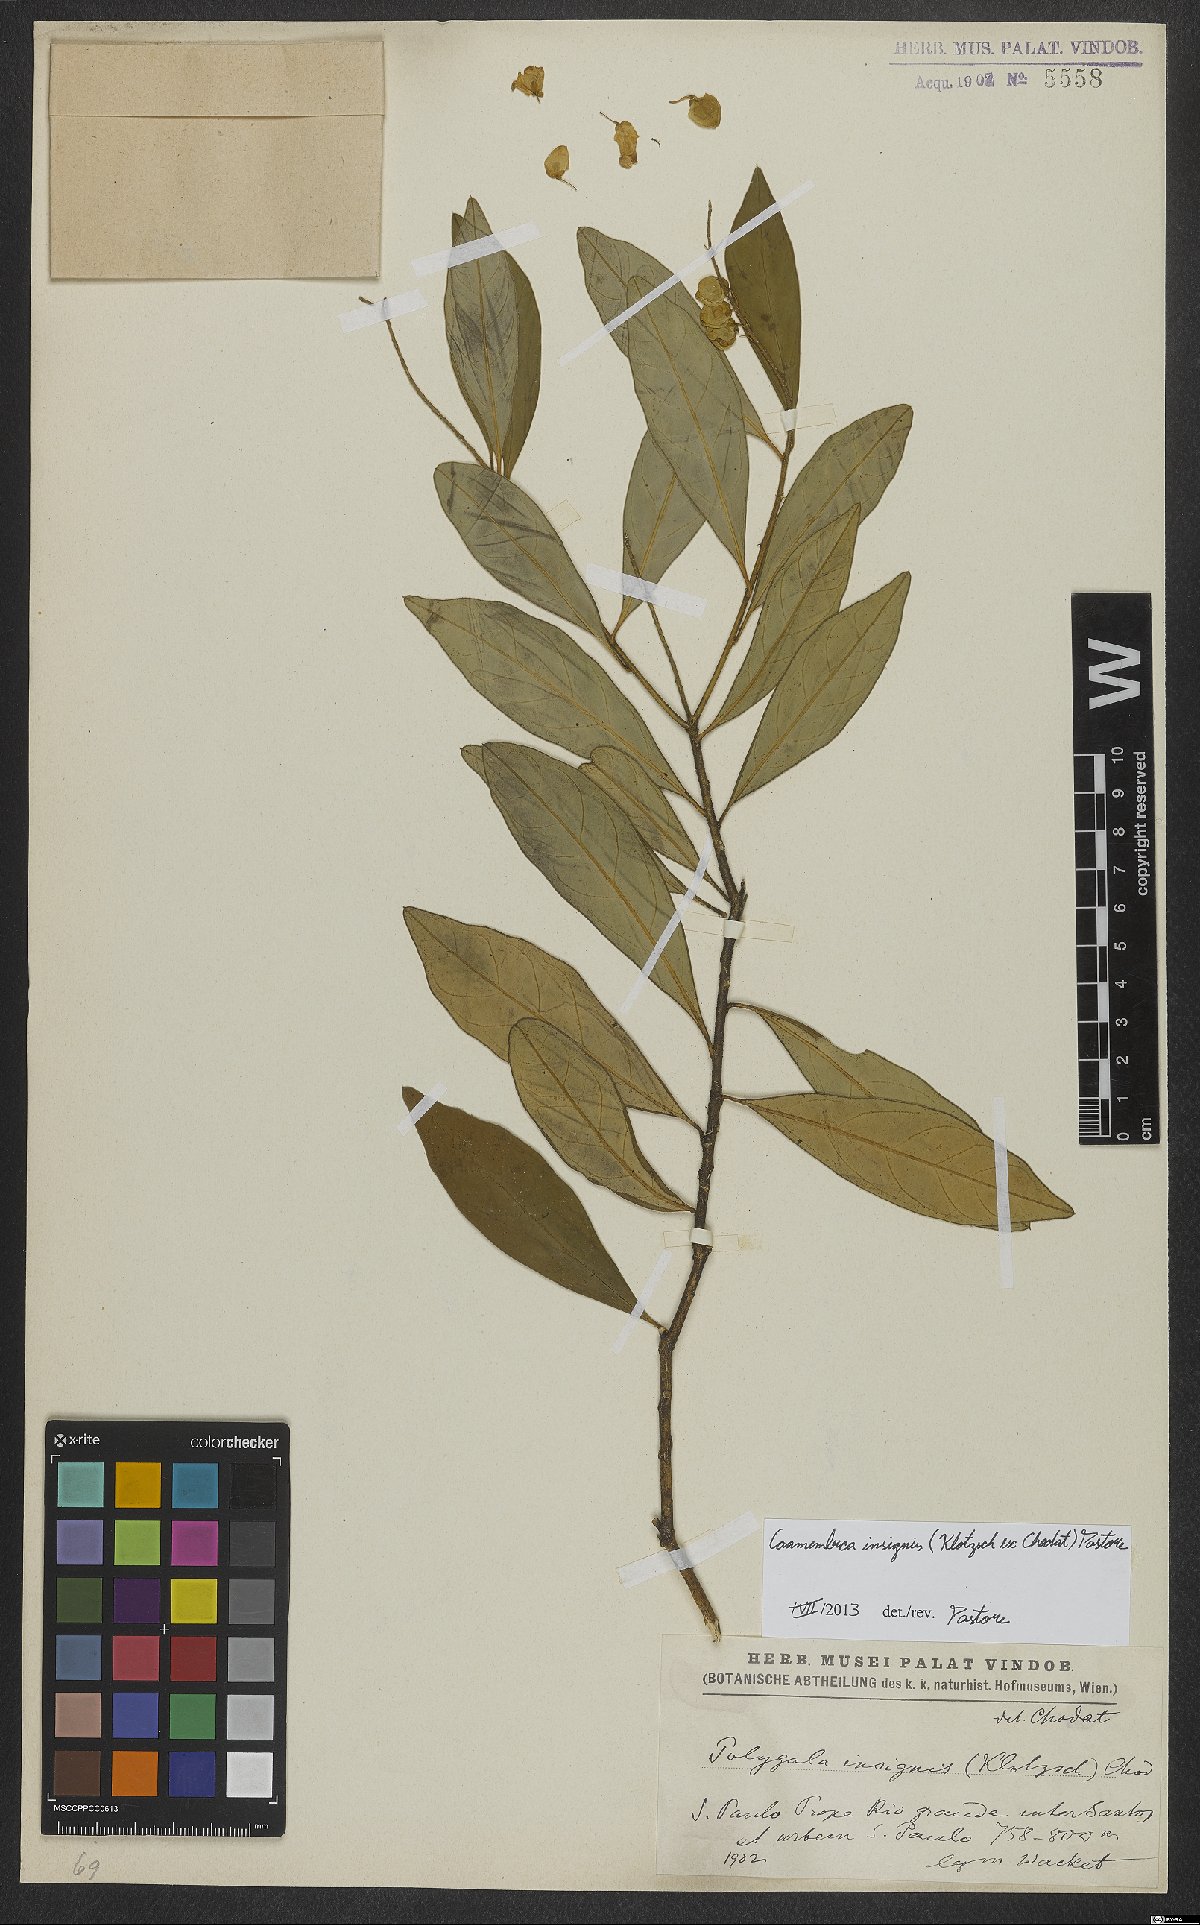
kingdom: Plantae
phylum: Tracheophyta
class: Magnoliopsida
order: Fabales
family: Polygalaceae
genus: Caamembeca
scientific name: Caamembeca insignis
